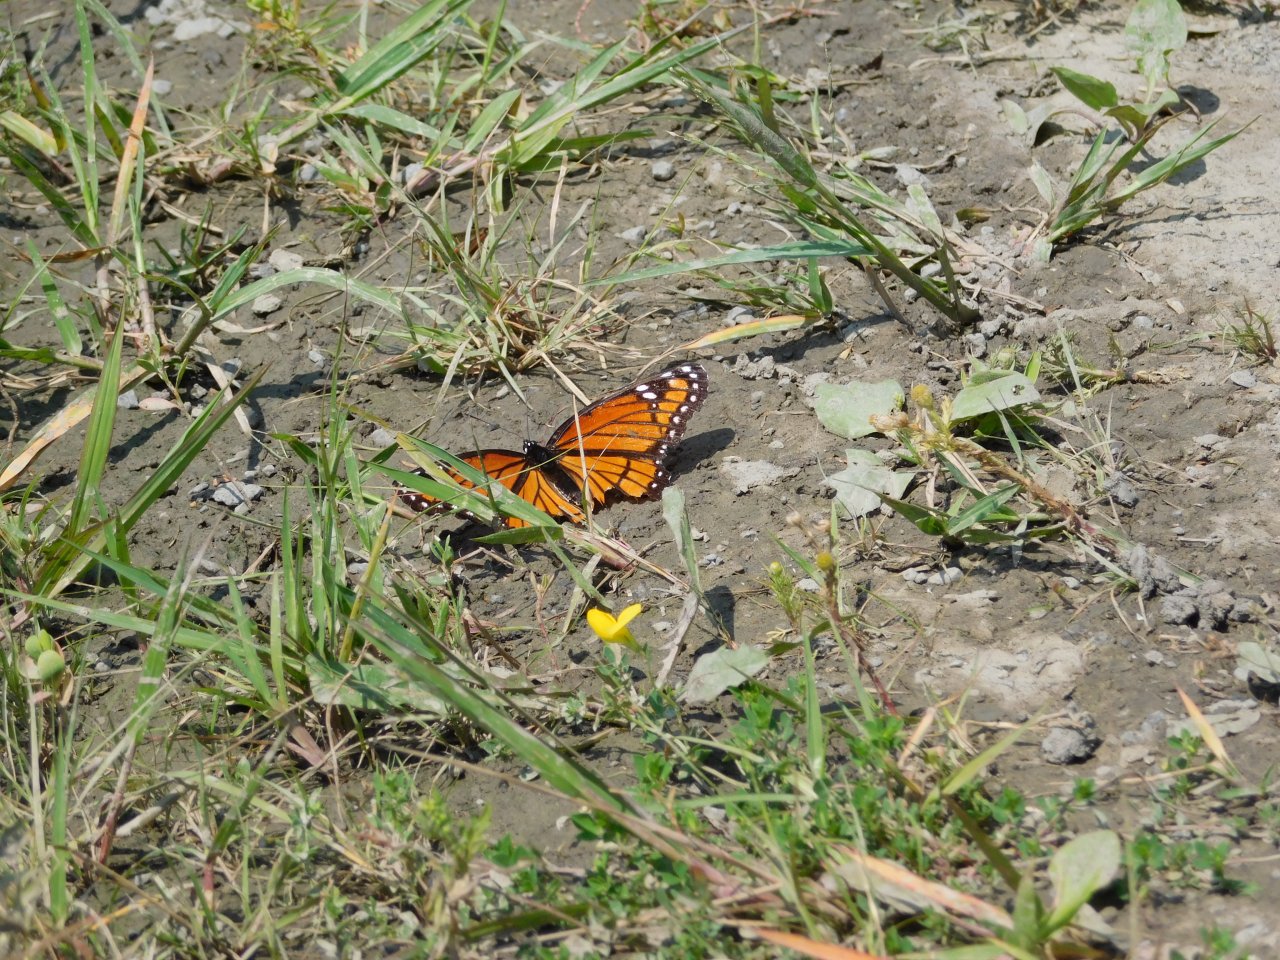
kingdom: Animalia
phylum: Arthropoda
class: Insecta
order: Lepidoptera
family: Nymphalidae
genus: Limenitis
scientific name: Limenitis archippus
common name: Viceroy
